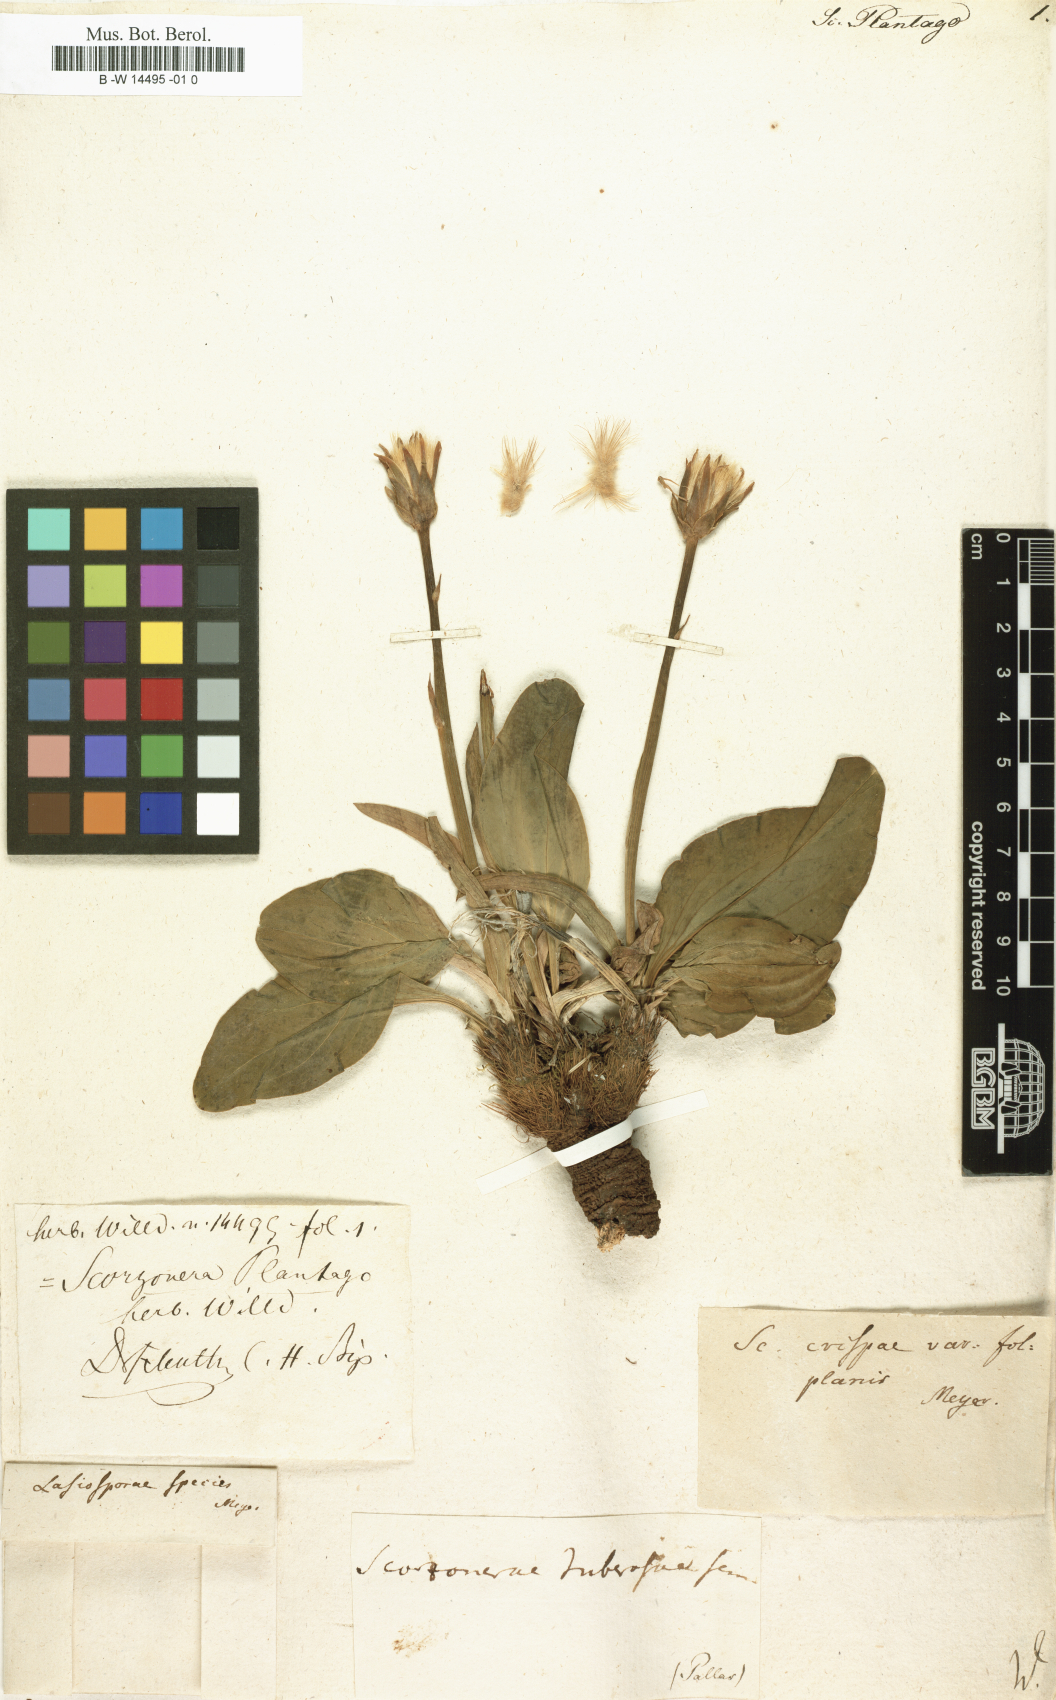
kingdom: Plantae
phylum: Tracheophyta
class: Magnoliopsida
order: Asterales
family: Asteraceae
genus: Scorzonera
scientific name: Scorzonera
